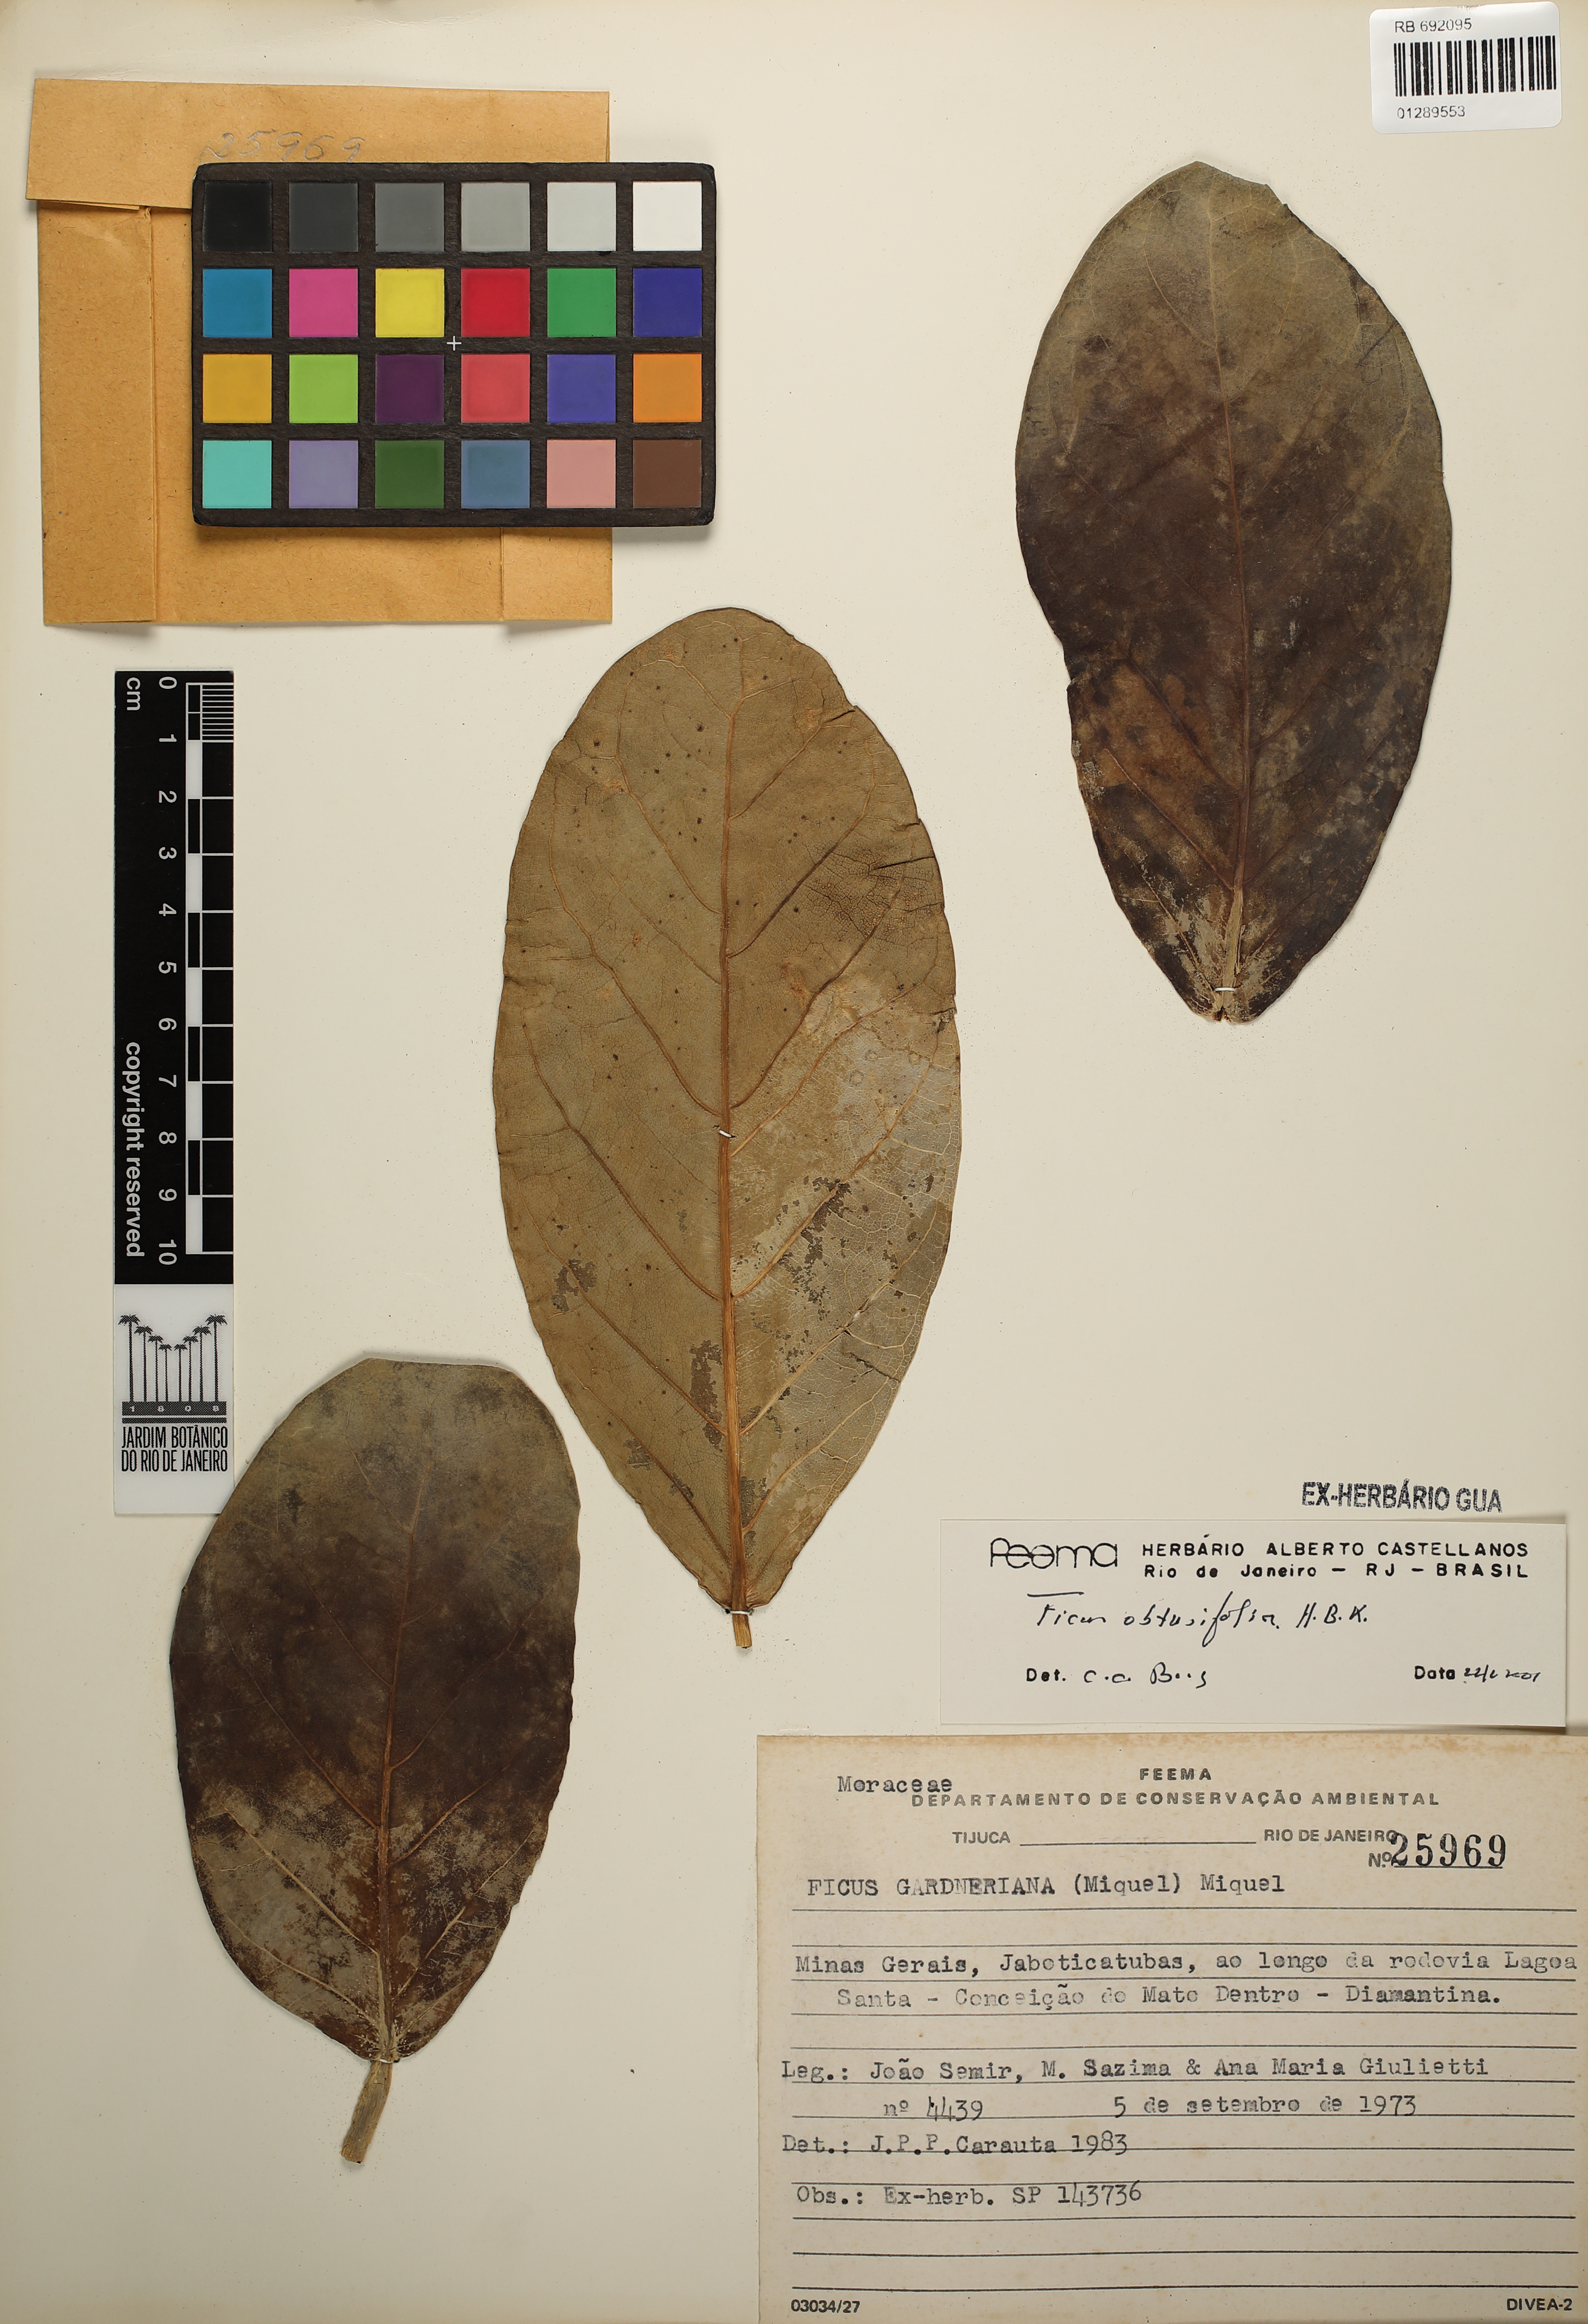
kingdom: Plantae
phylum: Tracheophyta
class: Magnoliopsida
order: Rosales
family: Moraceae
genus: Ficus
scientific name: Ficus obtusifolia
